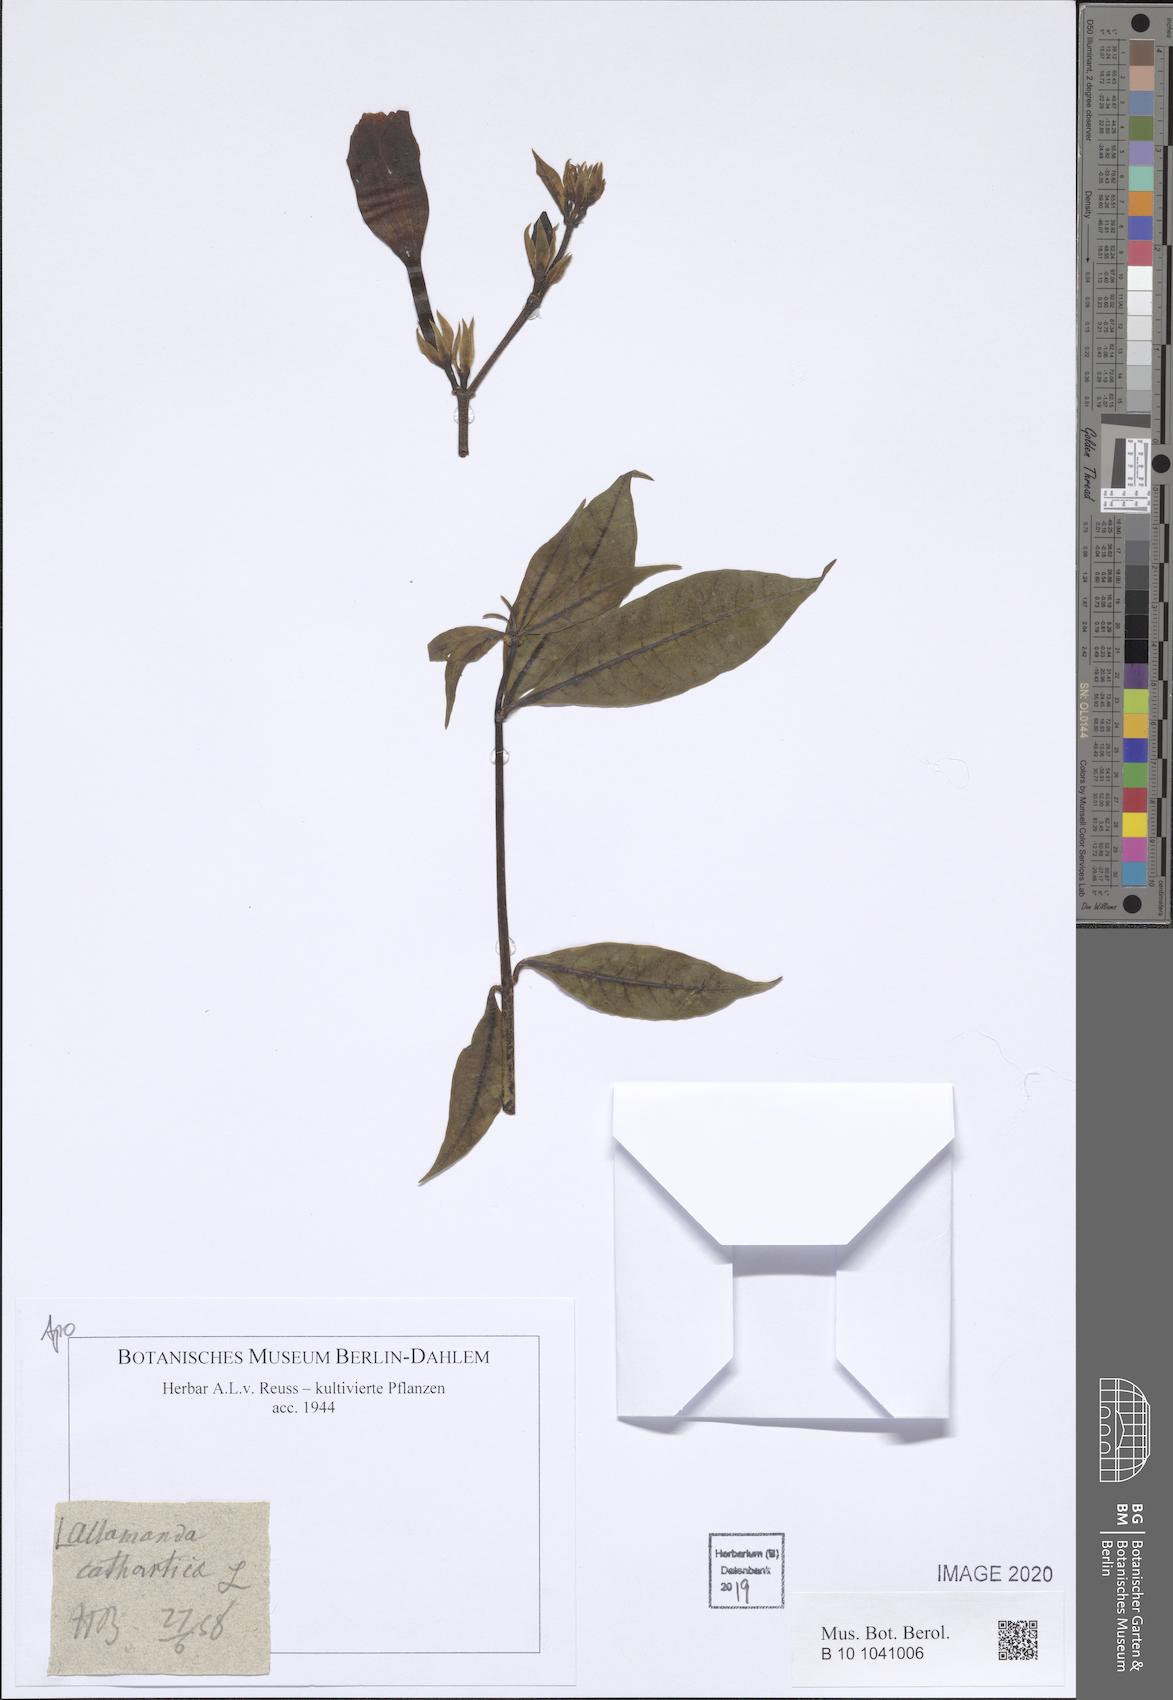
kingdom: Plantae
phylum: Tracheophyta
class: Magnoliopsida
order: Gentianales
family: Apocynaceae
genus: Allamanda
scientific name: Allamanda cathartica
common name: Golden trumpet
